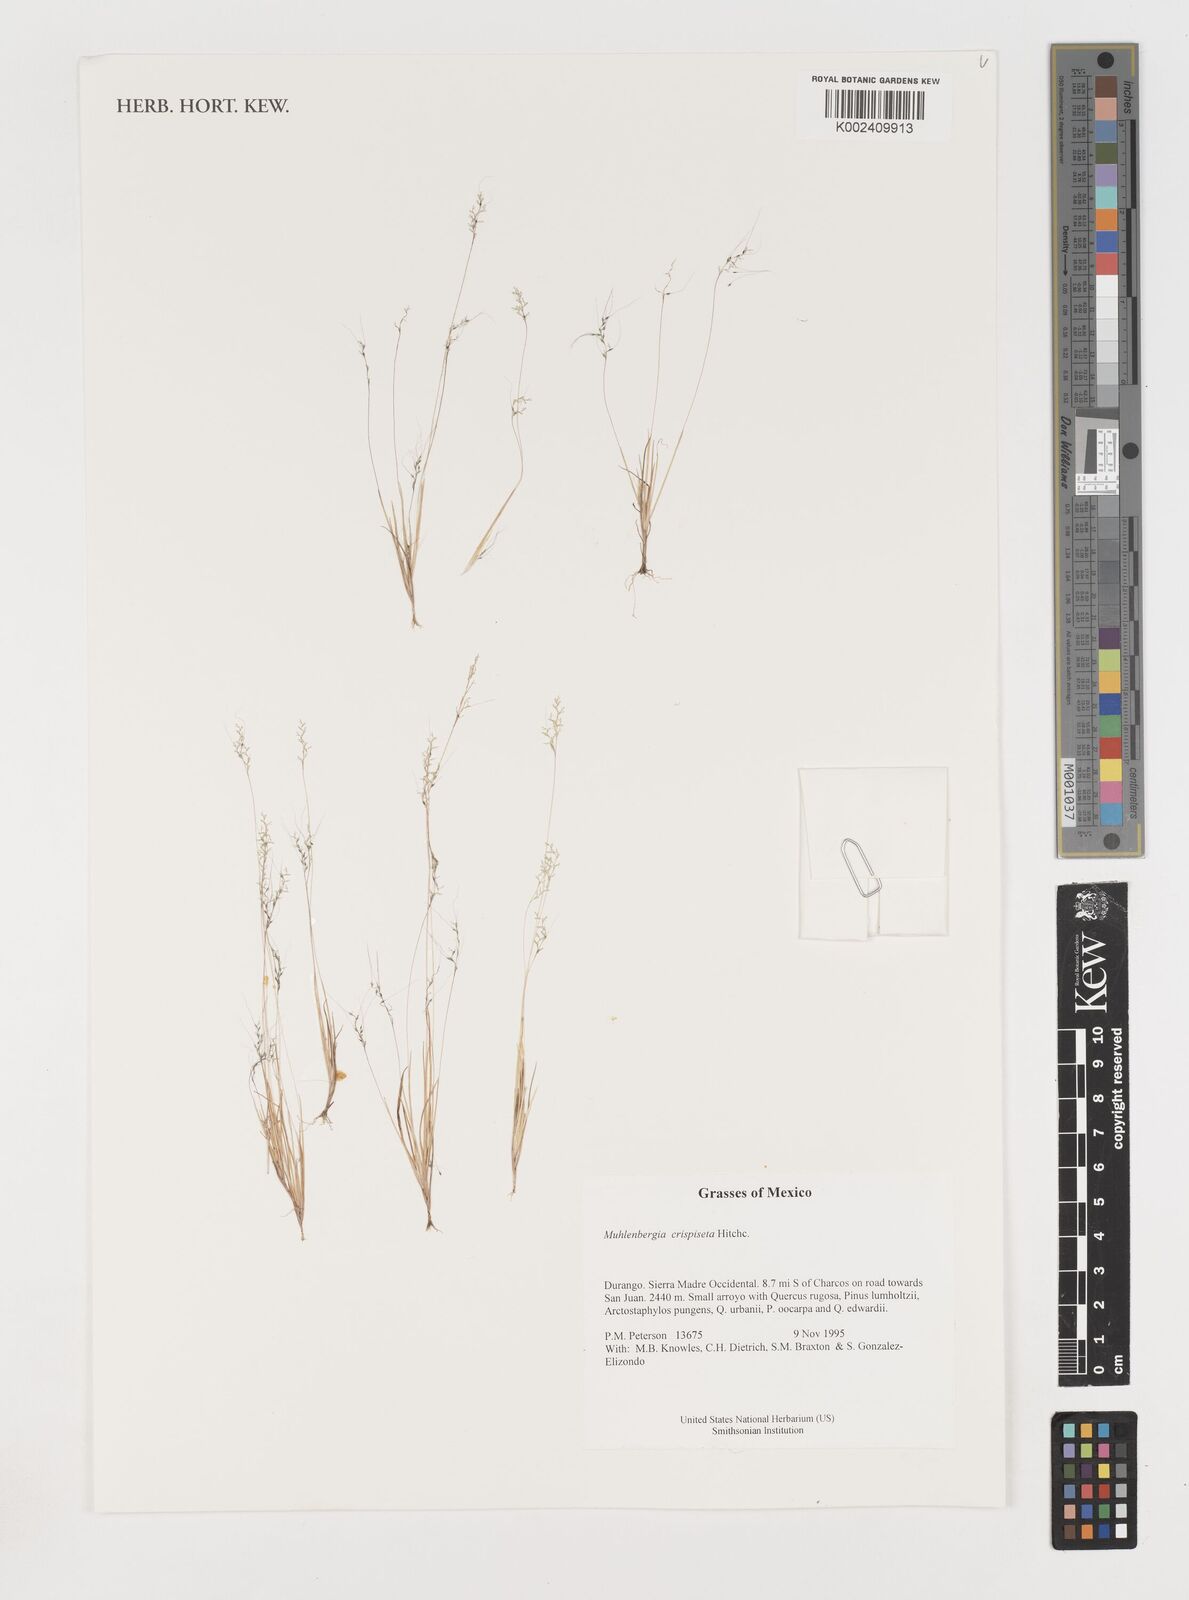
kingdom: Plantae
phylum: Tracheophyta
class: Liliopsida
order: Poales
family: Poaceae
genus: Muhlenbergia
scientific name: Muhlenbergia crispiseta
